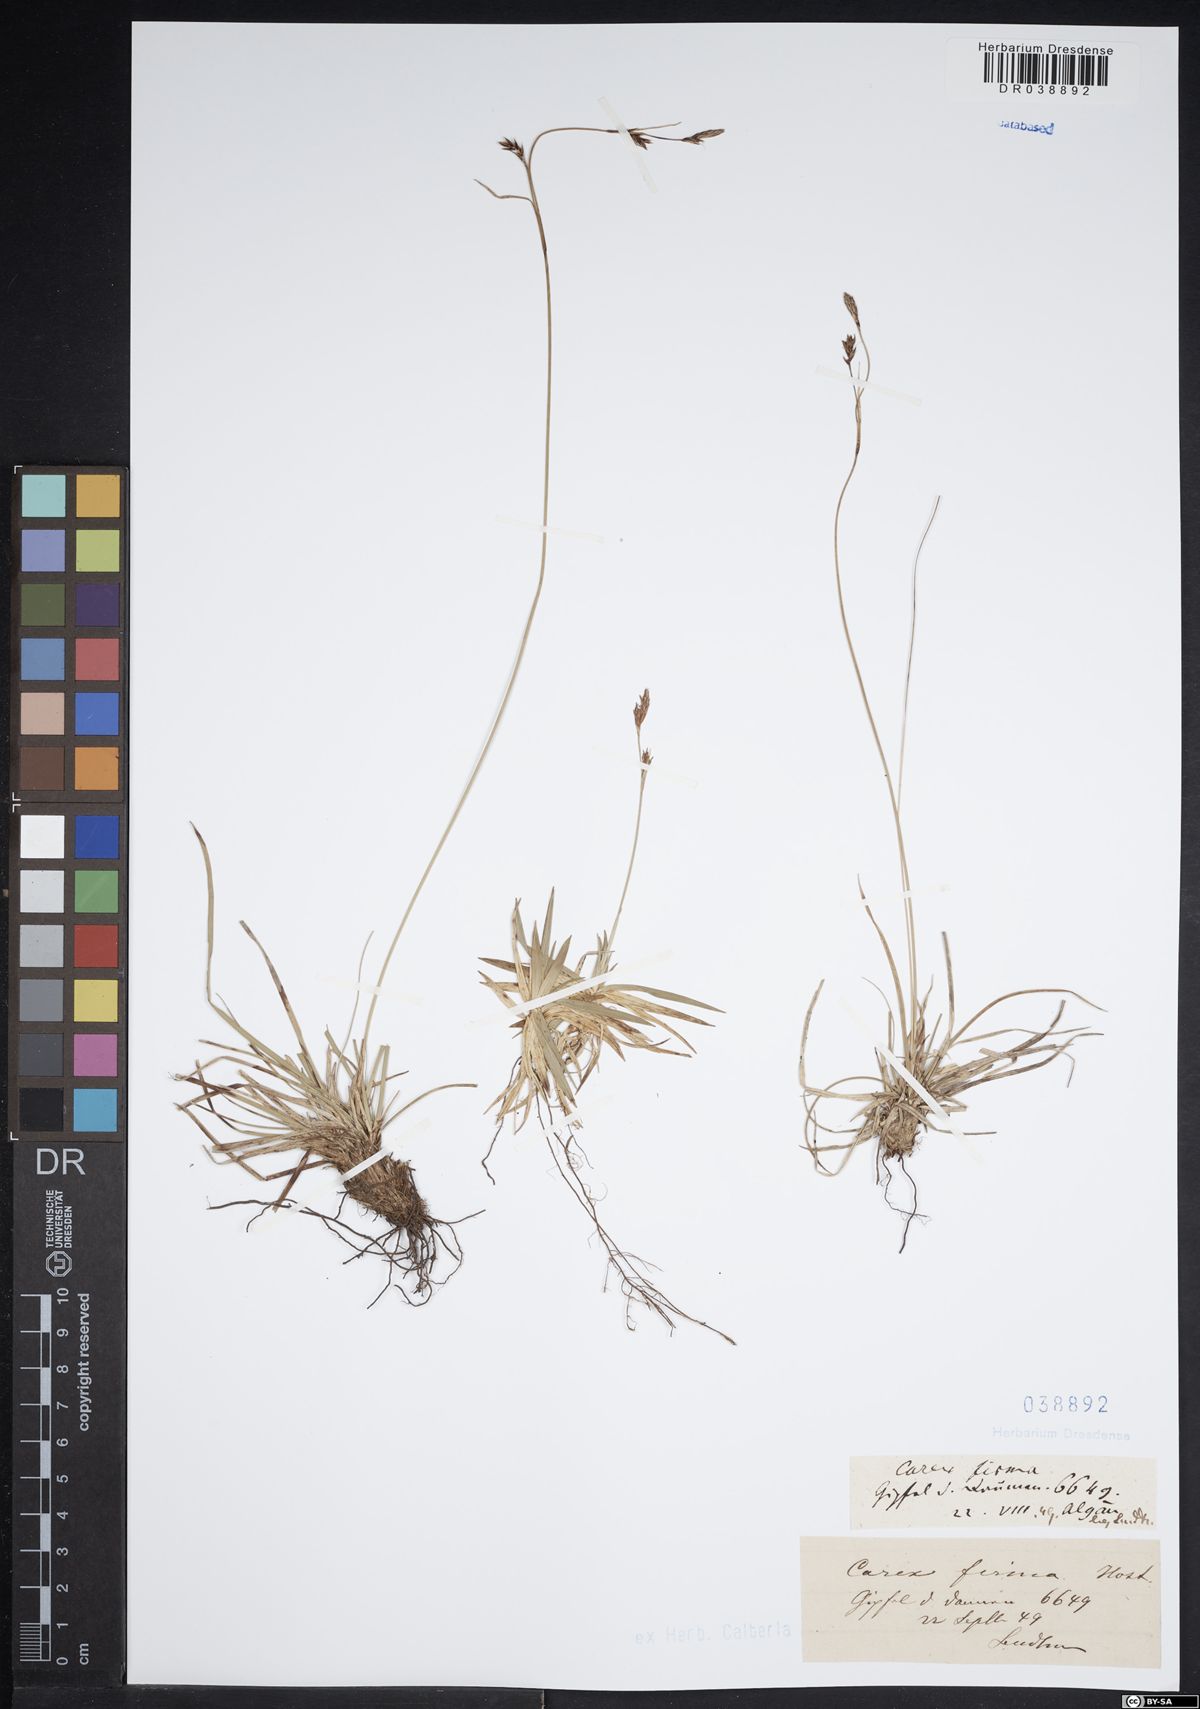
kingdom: Plantae
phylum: Tracheophyta
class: Liliopsida
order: Poales
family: Cyperaceae
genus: Carex
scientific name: Carex firma
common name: Dwarf pillow sedge
